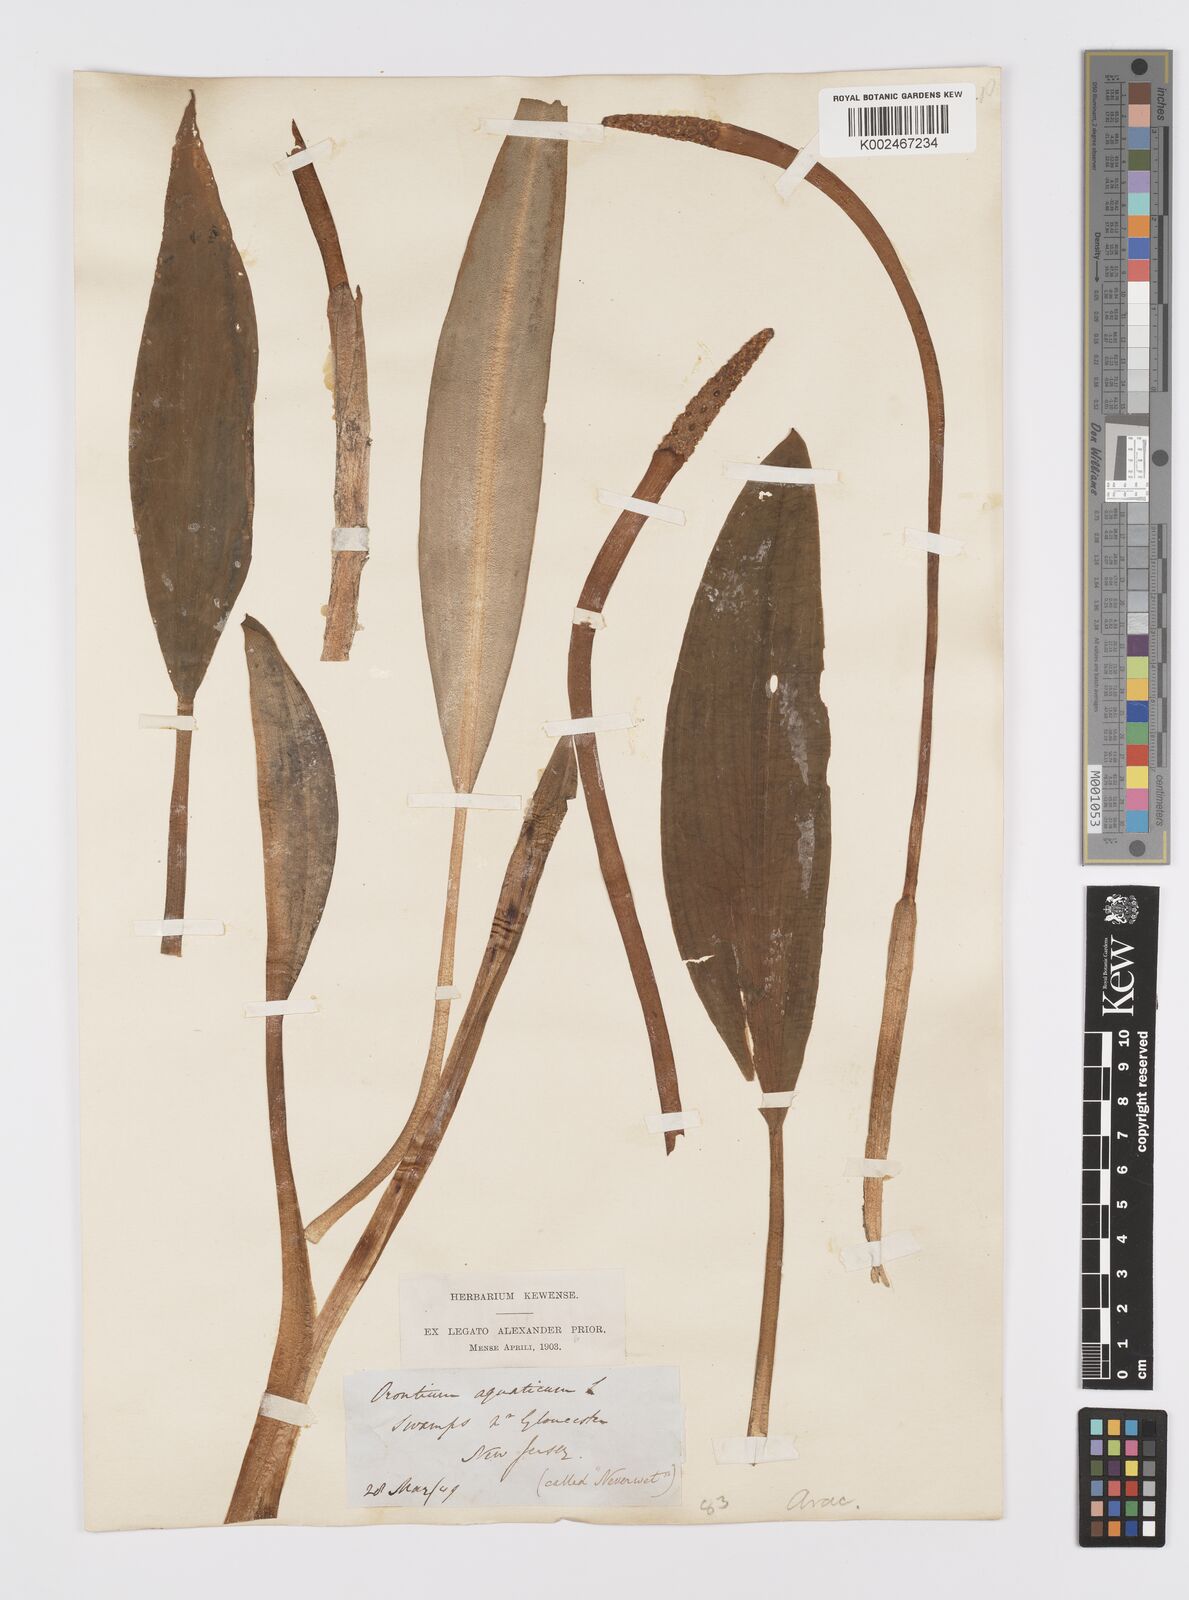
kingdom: Plantae
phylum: Tracheophyta
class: Liliopsida
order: Alismatales
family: Araceae
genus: Orontium
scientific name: Orontium aquaticum
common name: Golden-club
